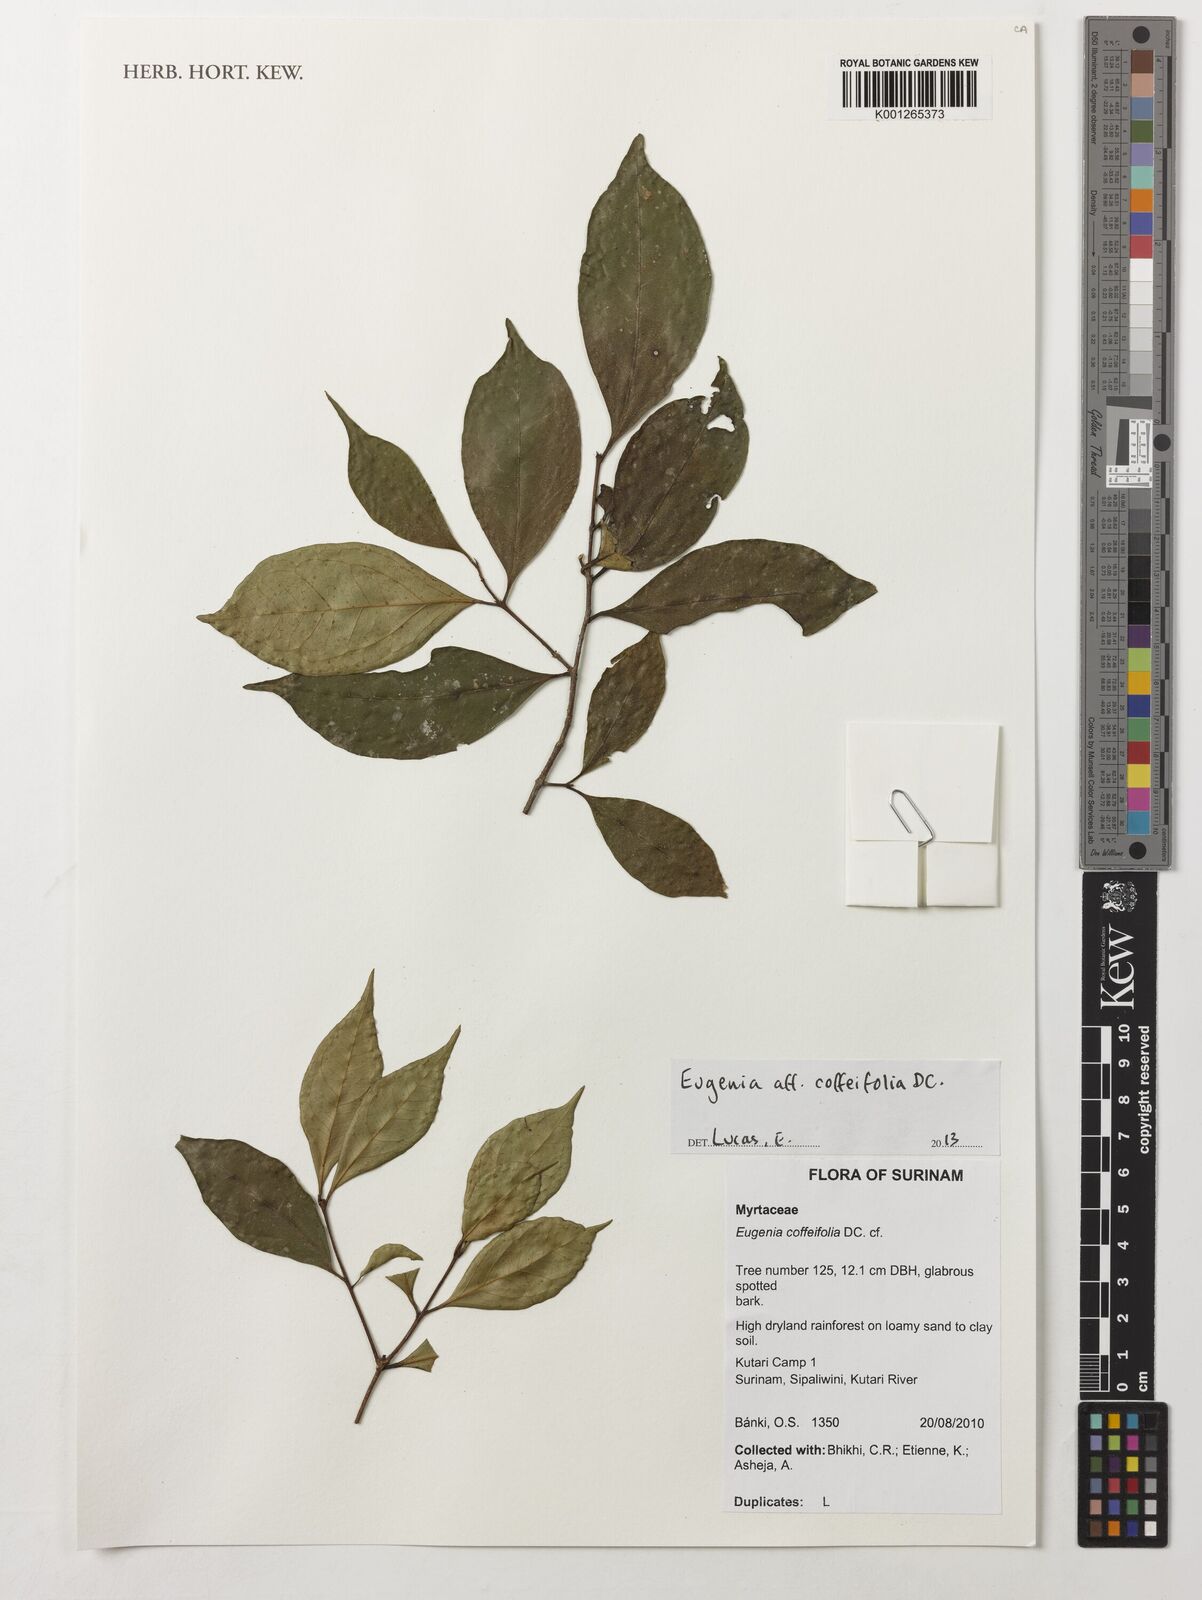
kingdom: Plantae
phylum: Tracheophyta
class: Magnoliopsida
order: Myrtales
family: Myrtaceae
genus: Eugenia
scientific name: Eugenia coffeifolia
